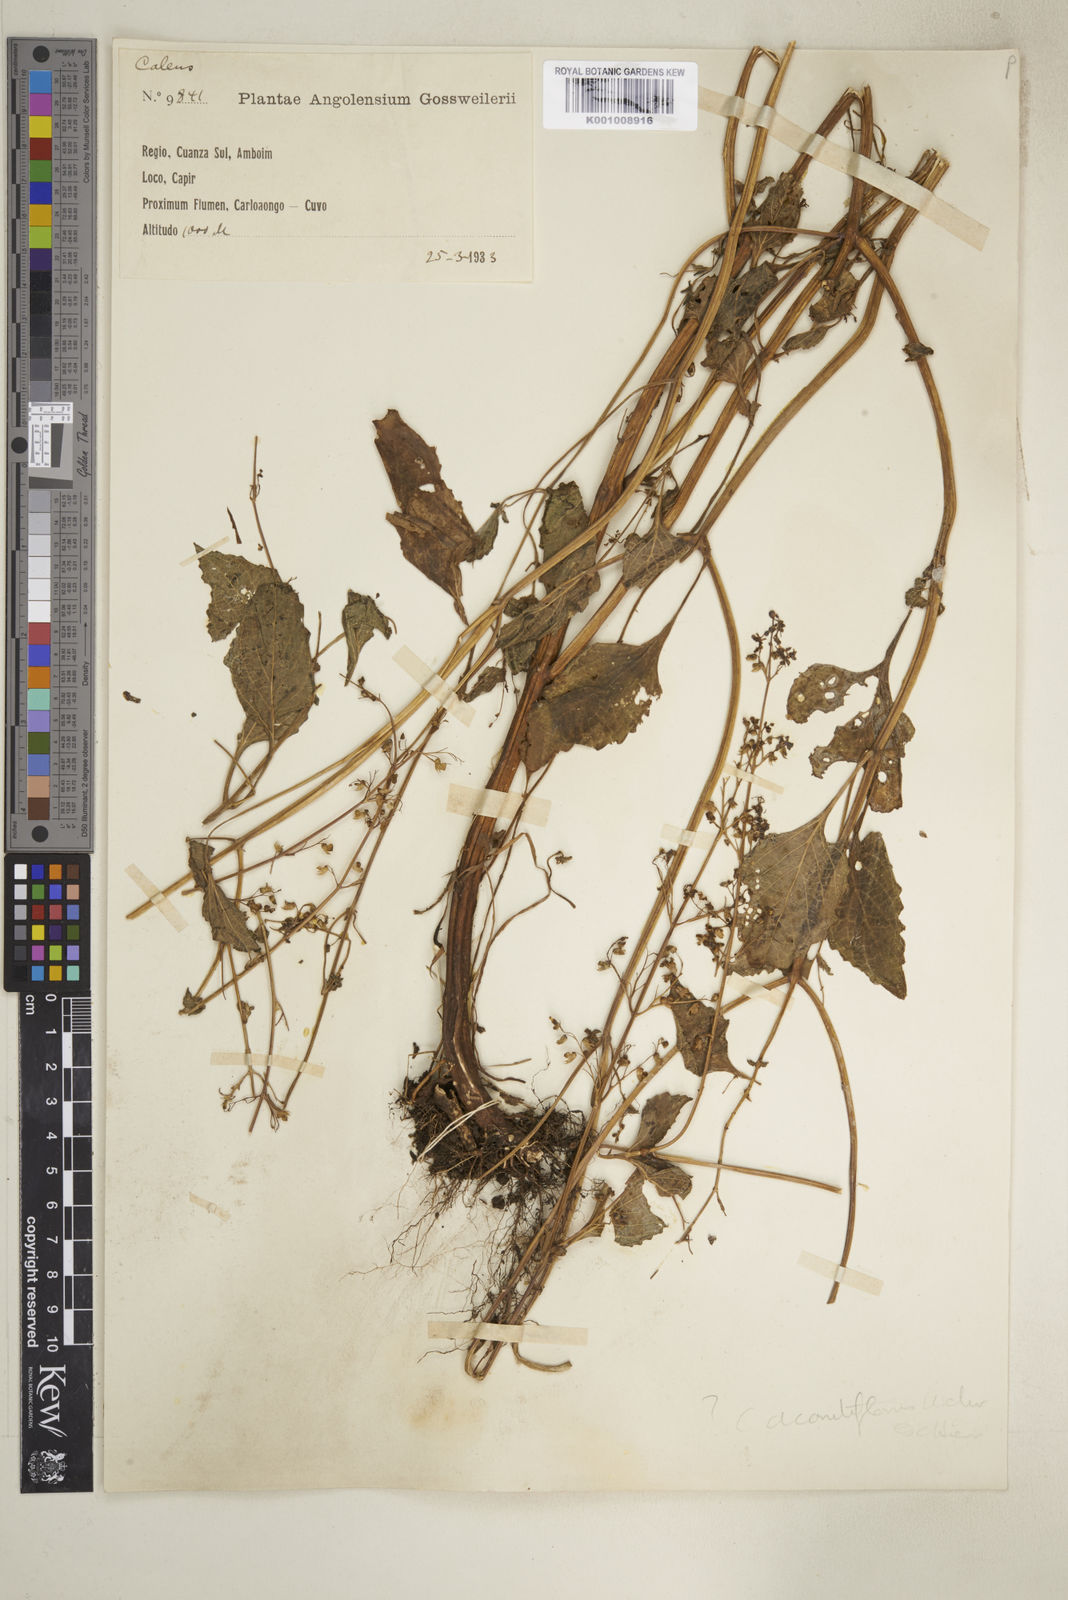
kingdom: Plantae
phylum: Tracheophyta
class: Magnoliopsida
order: Lamiales
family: Lamiaceae
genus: Coleus
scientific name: Coleus tenuicaulis
